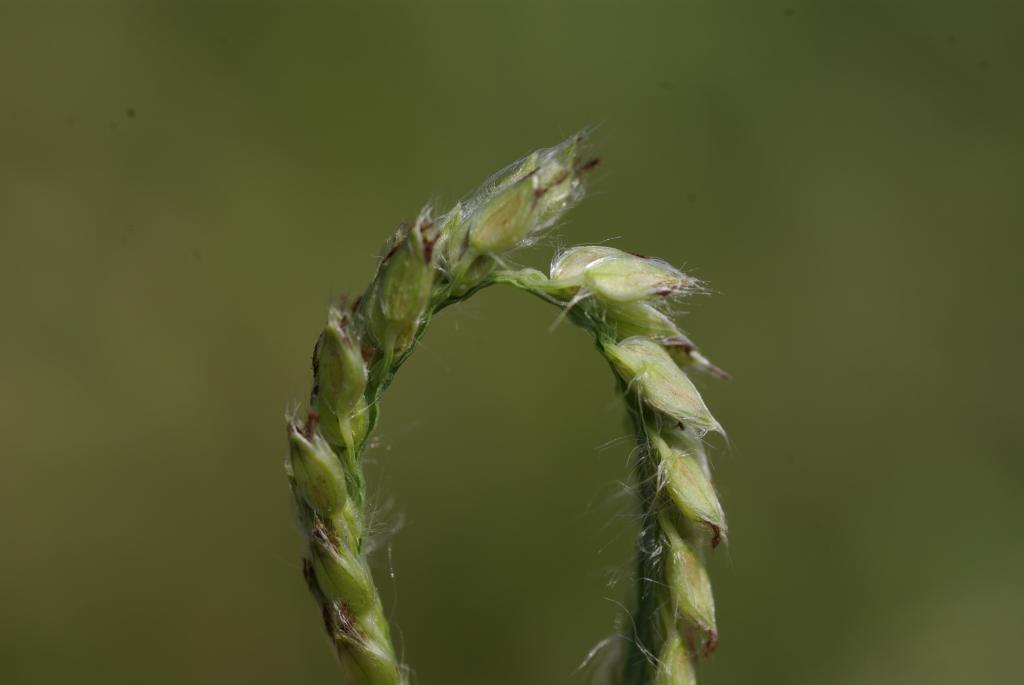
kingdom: Plantae
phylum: Tracheophyta
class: Liliopsida
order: Poales
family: Poaceae
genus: Paspalum
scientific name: Paspalum urvillei
